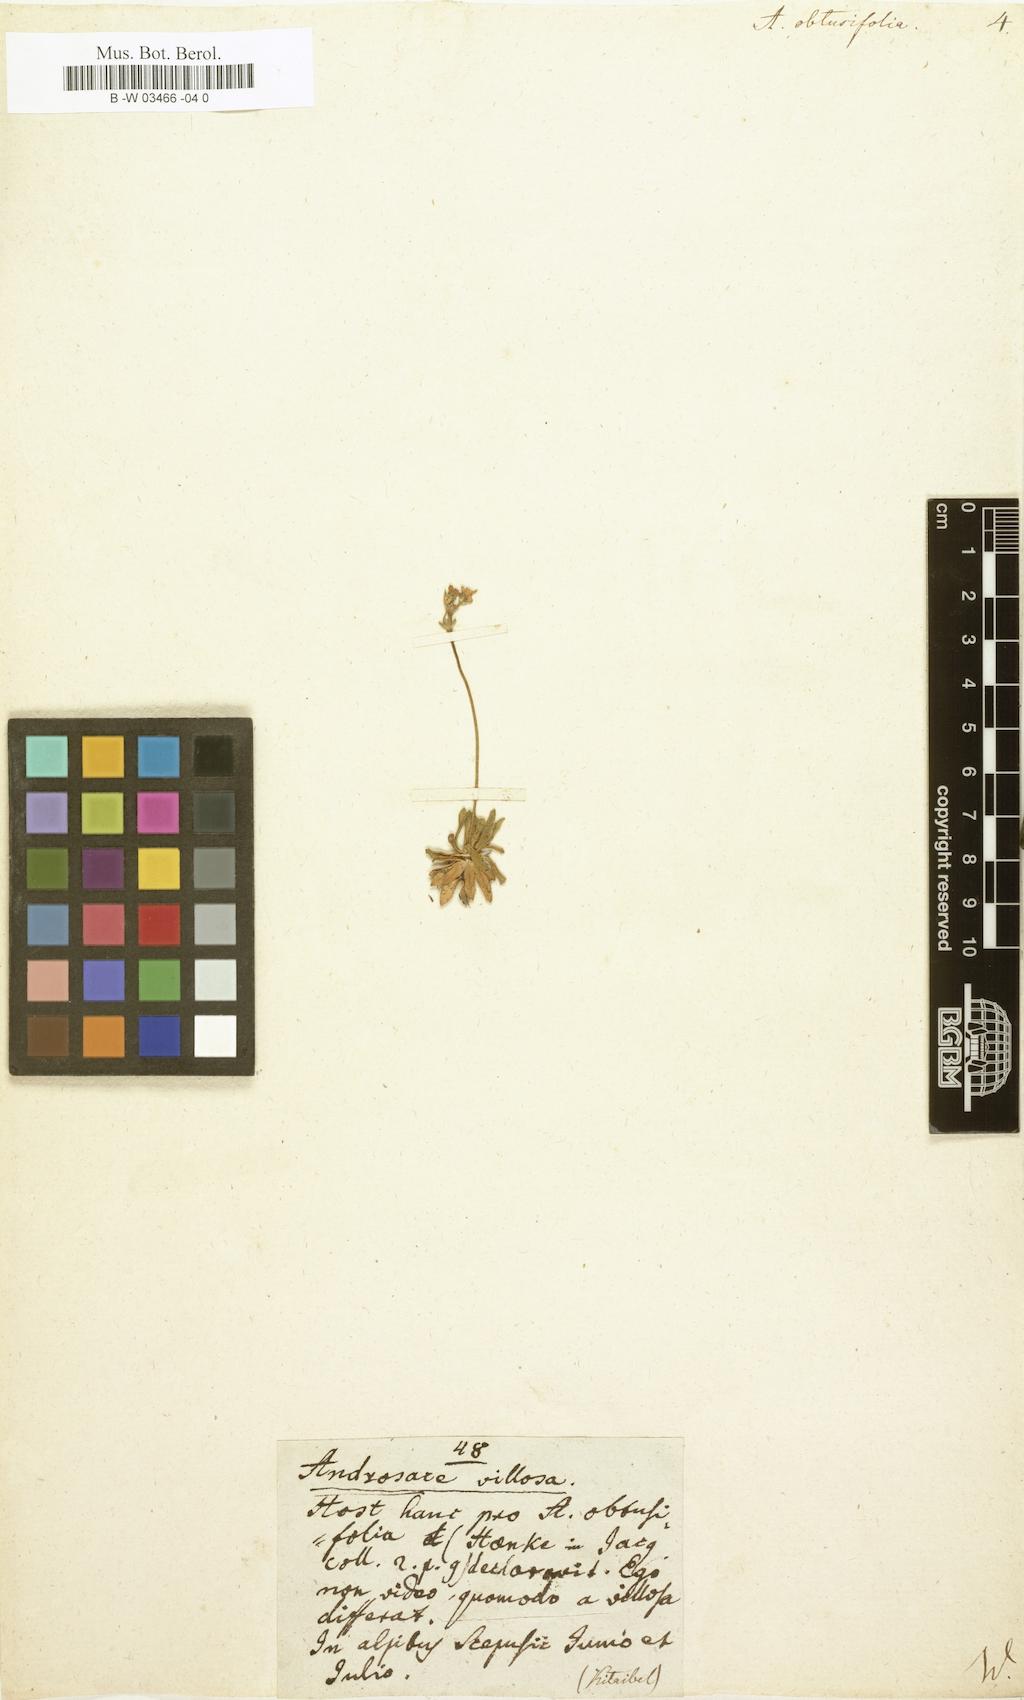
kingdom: Plantae
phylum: Tracheophyta
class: Magnoliopsida
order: Ericales
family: Primulaceae
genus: Androsace
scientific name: Androsace obtusifolia
